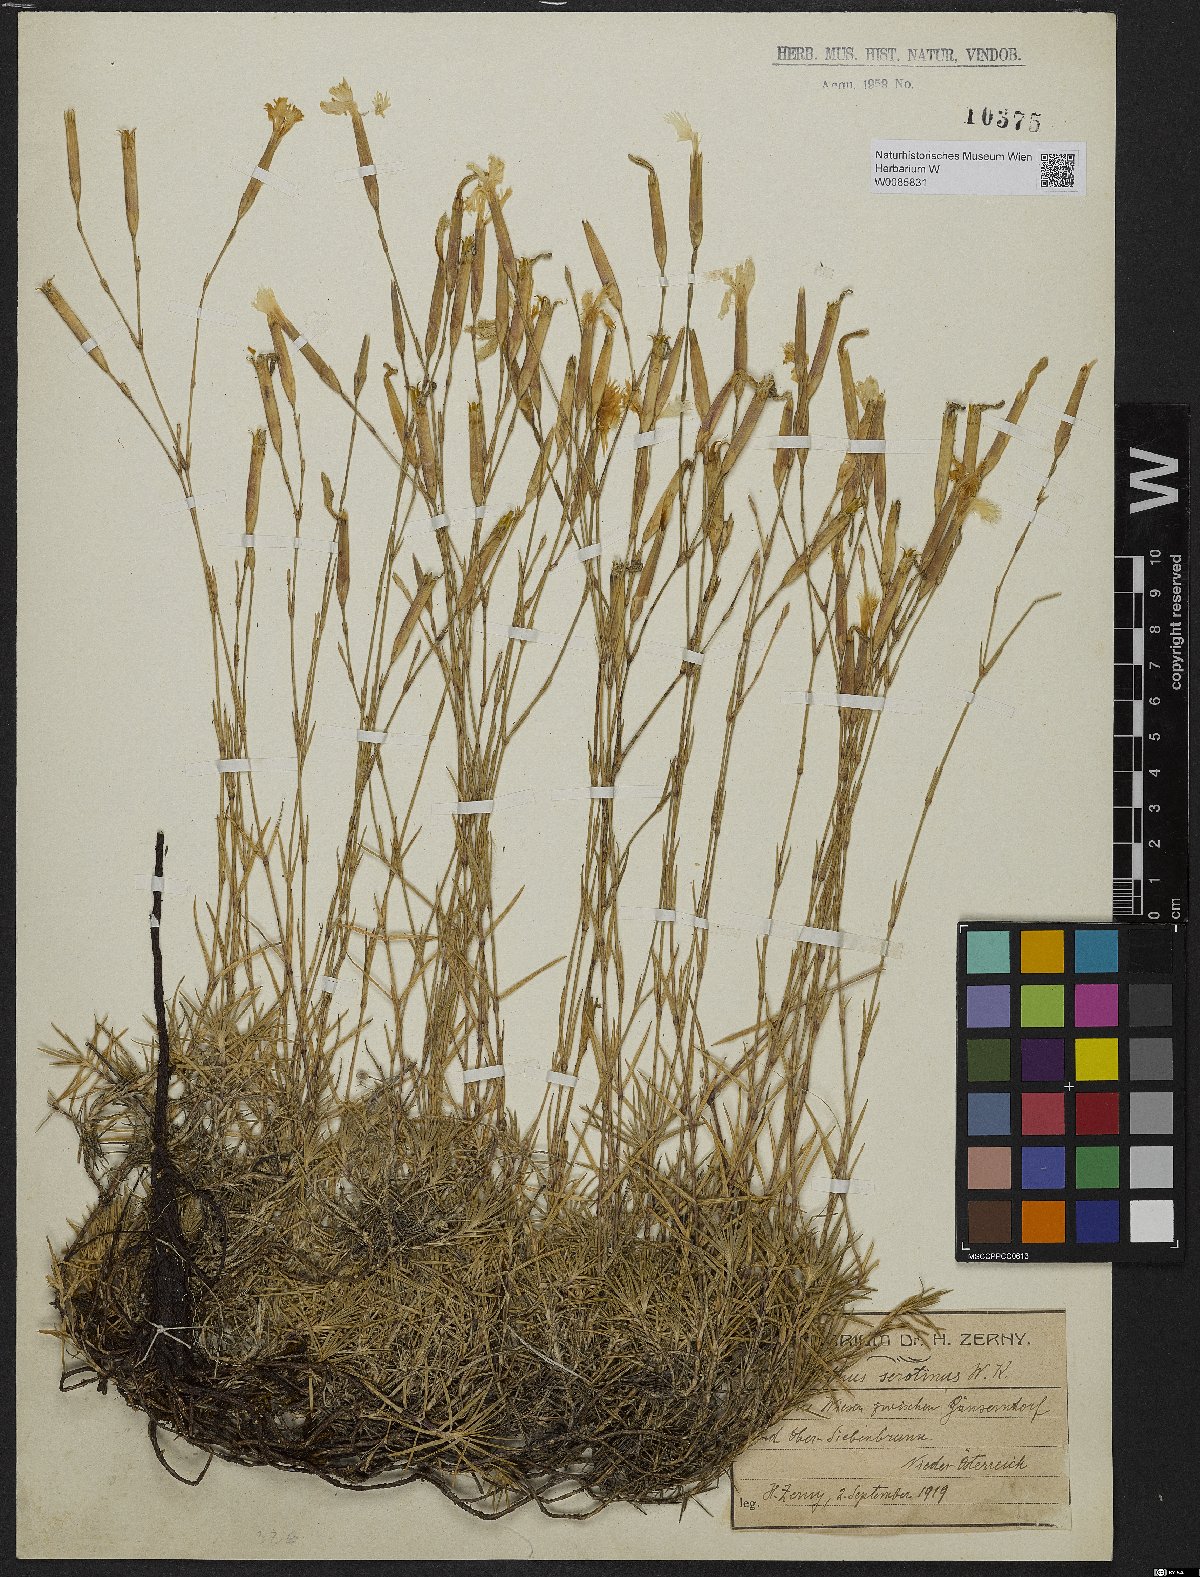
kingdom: Plantae
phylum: Tracheophyta
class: Magnoliopsida
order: Caryophyllales
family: Caryophyllaceae
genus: Dianthus
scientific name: Dianthus serotinus
